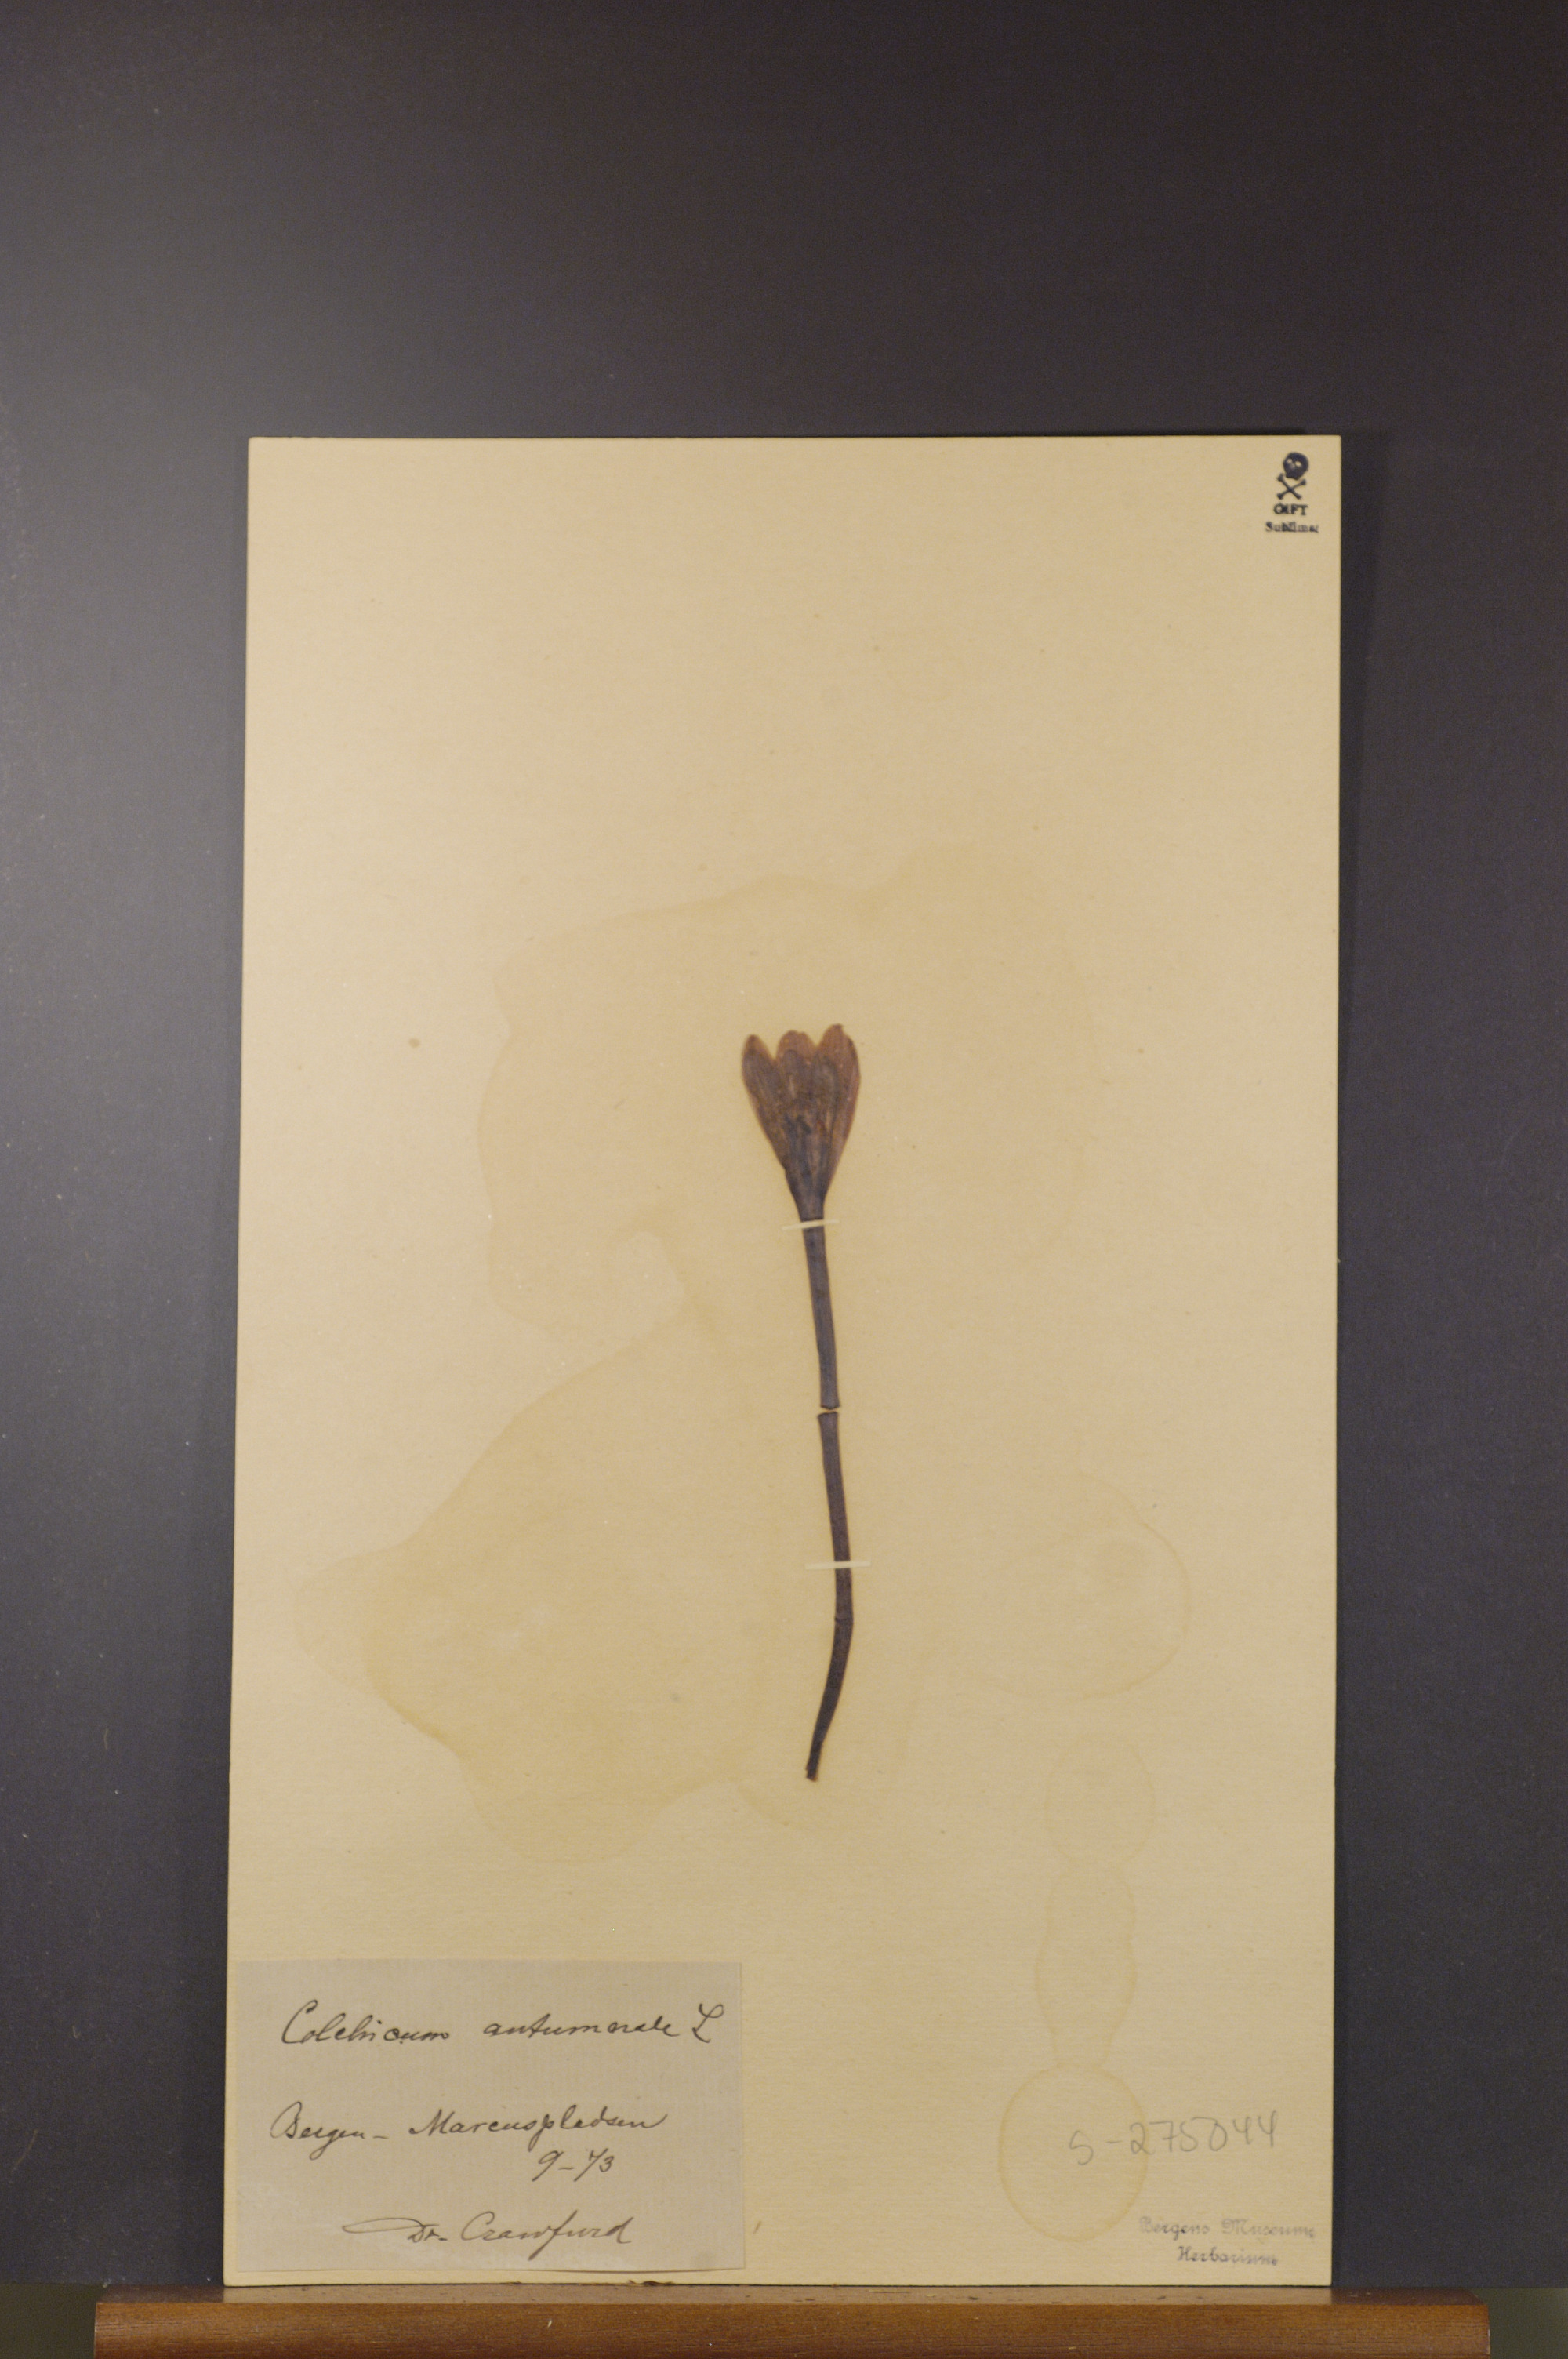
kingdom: Plantae
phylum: Tracheophyta
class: Liliopsida
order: Liliales
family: Colchicaceae
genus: Colchicum
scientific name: Colchicum autumnale
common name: Autumn crocus
